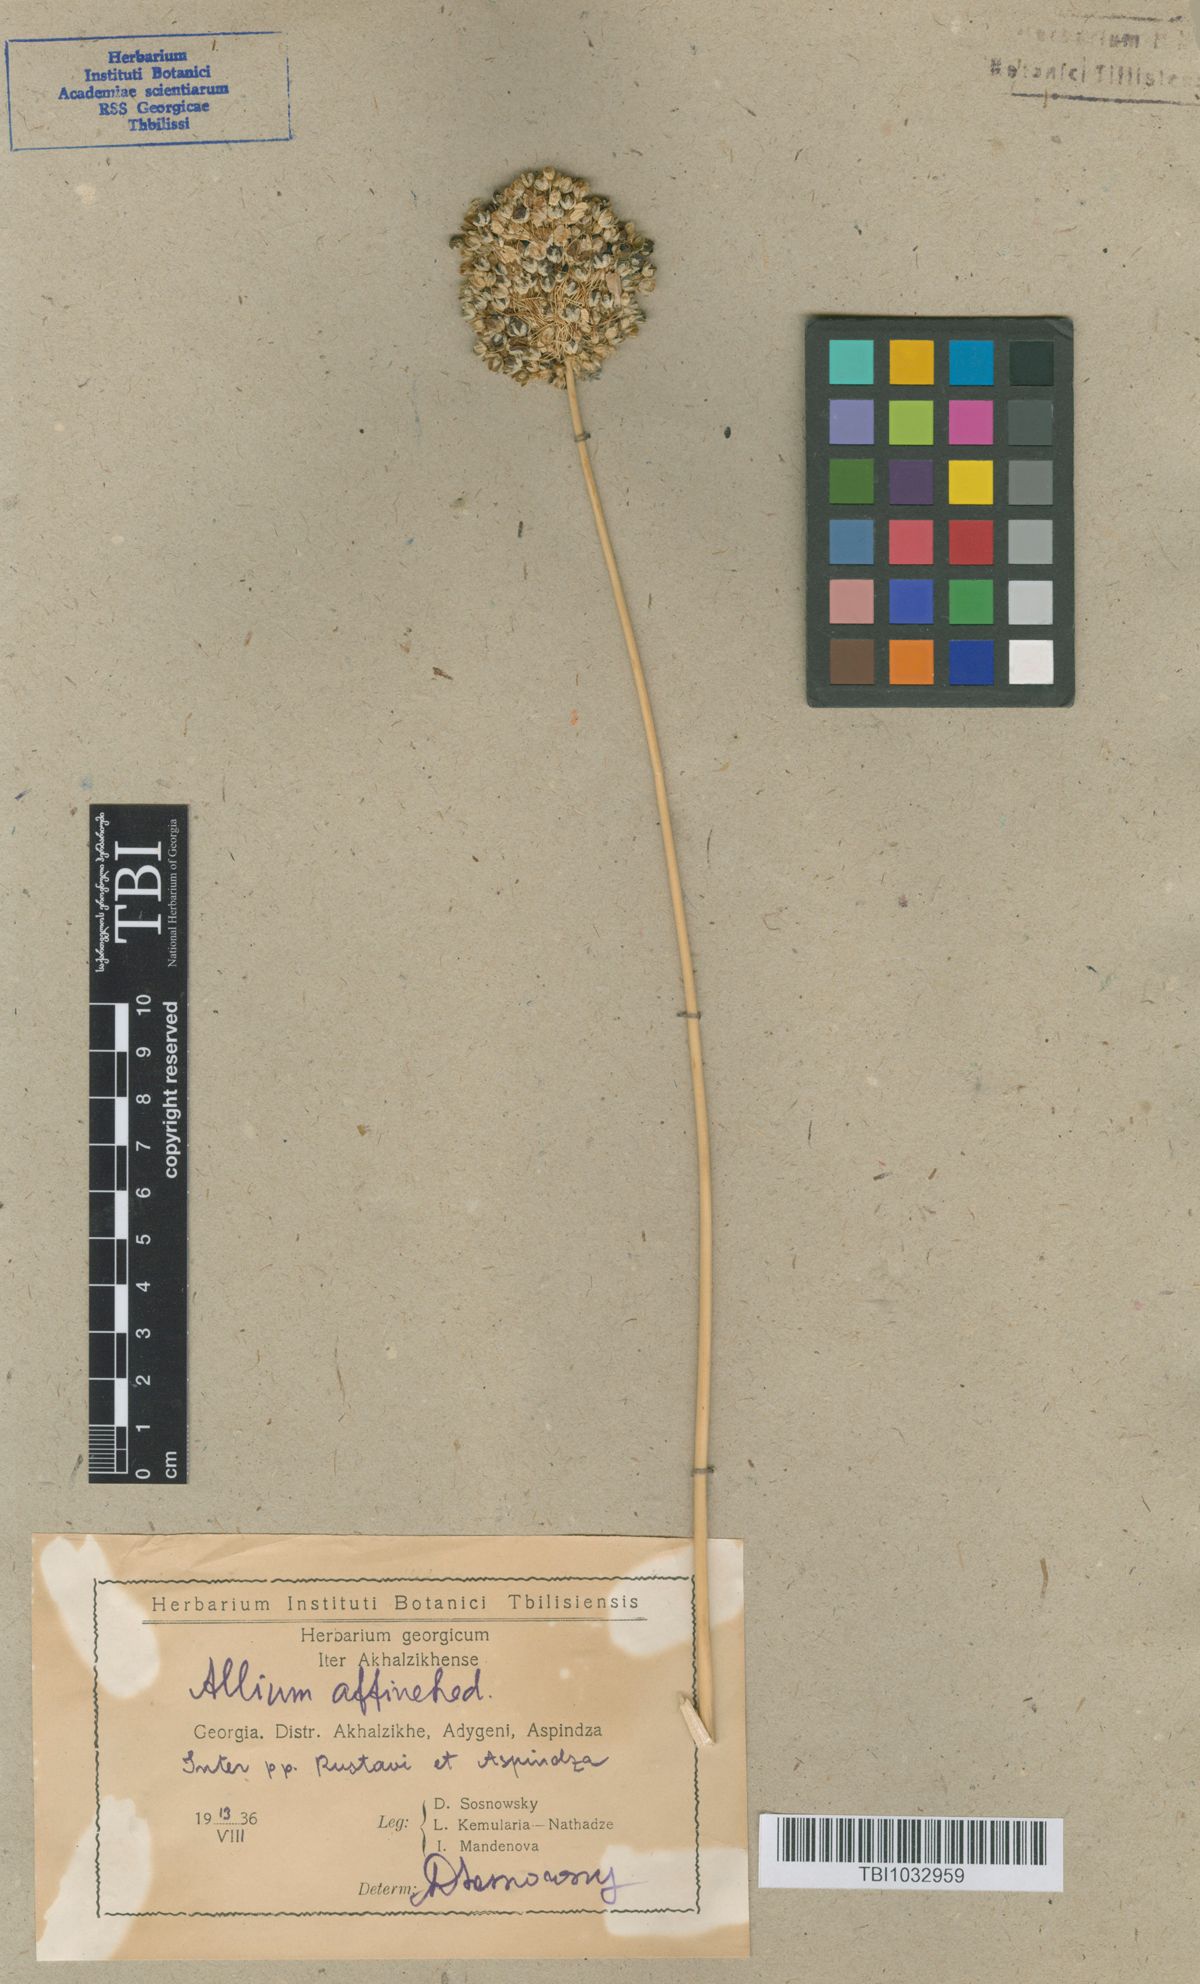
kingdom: Plantae
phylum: Tracheophyta
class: Liliopsida
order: Asparagales
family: Amaryllidaceae
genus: Allium
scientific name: Allium affine
